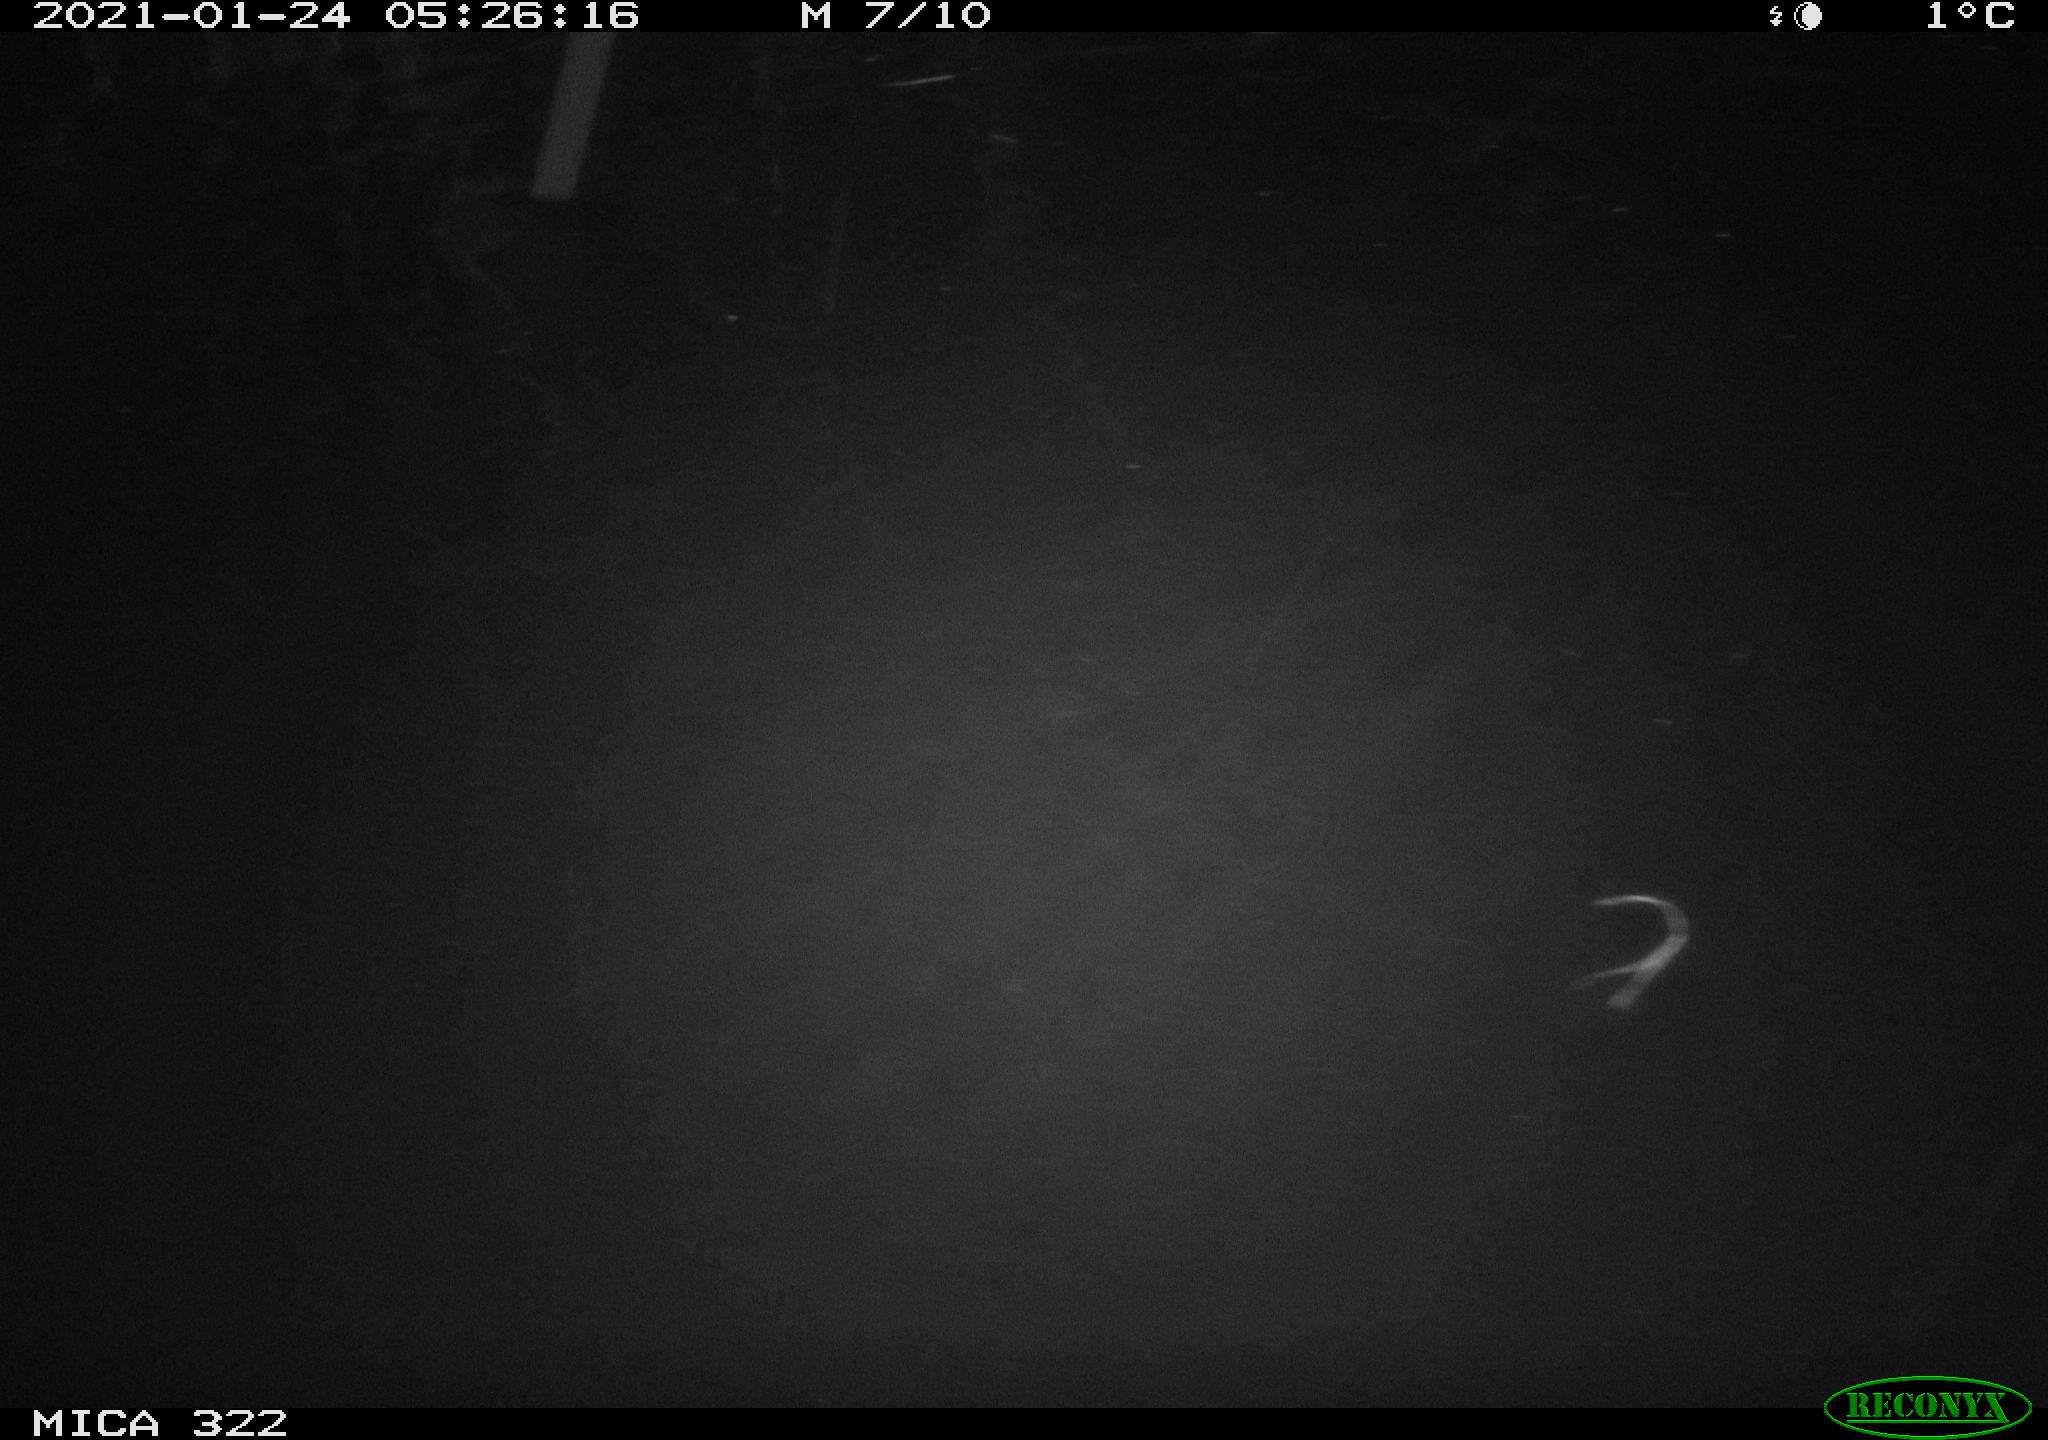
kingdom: Animalia
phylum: Chordata
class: Mammalia
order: Rodentia
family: Muridae
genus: Rattus
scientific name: Rattus norvegicus
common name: Brown rat
